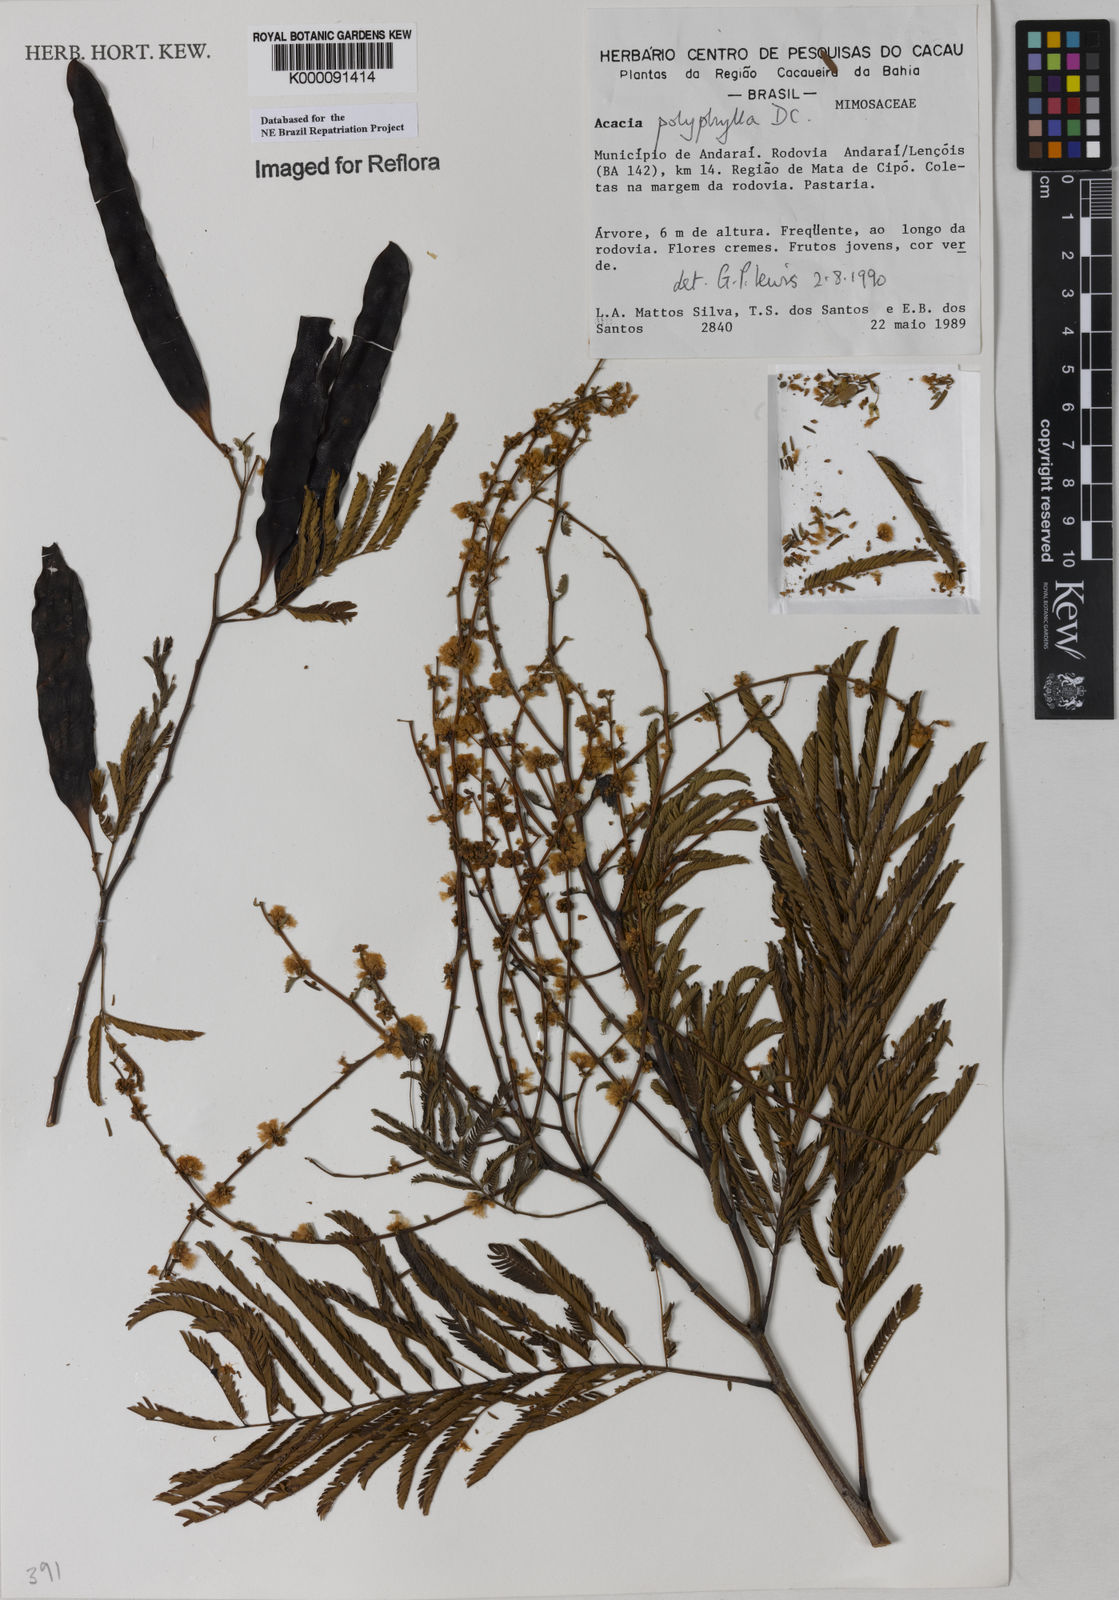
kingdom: Plantae
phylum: Tracheophyta
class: Magnoliopsida
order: Fabales
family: Fabaceae
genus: Senegalia
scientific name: Senegalia polyphylla
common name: White-tamarind
